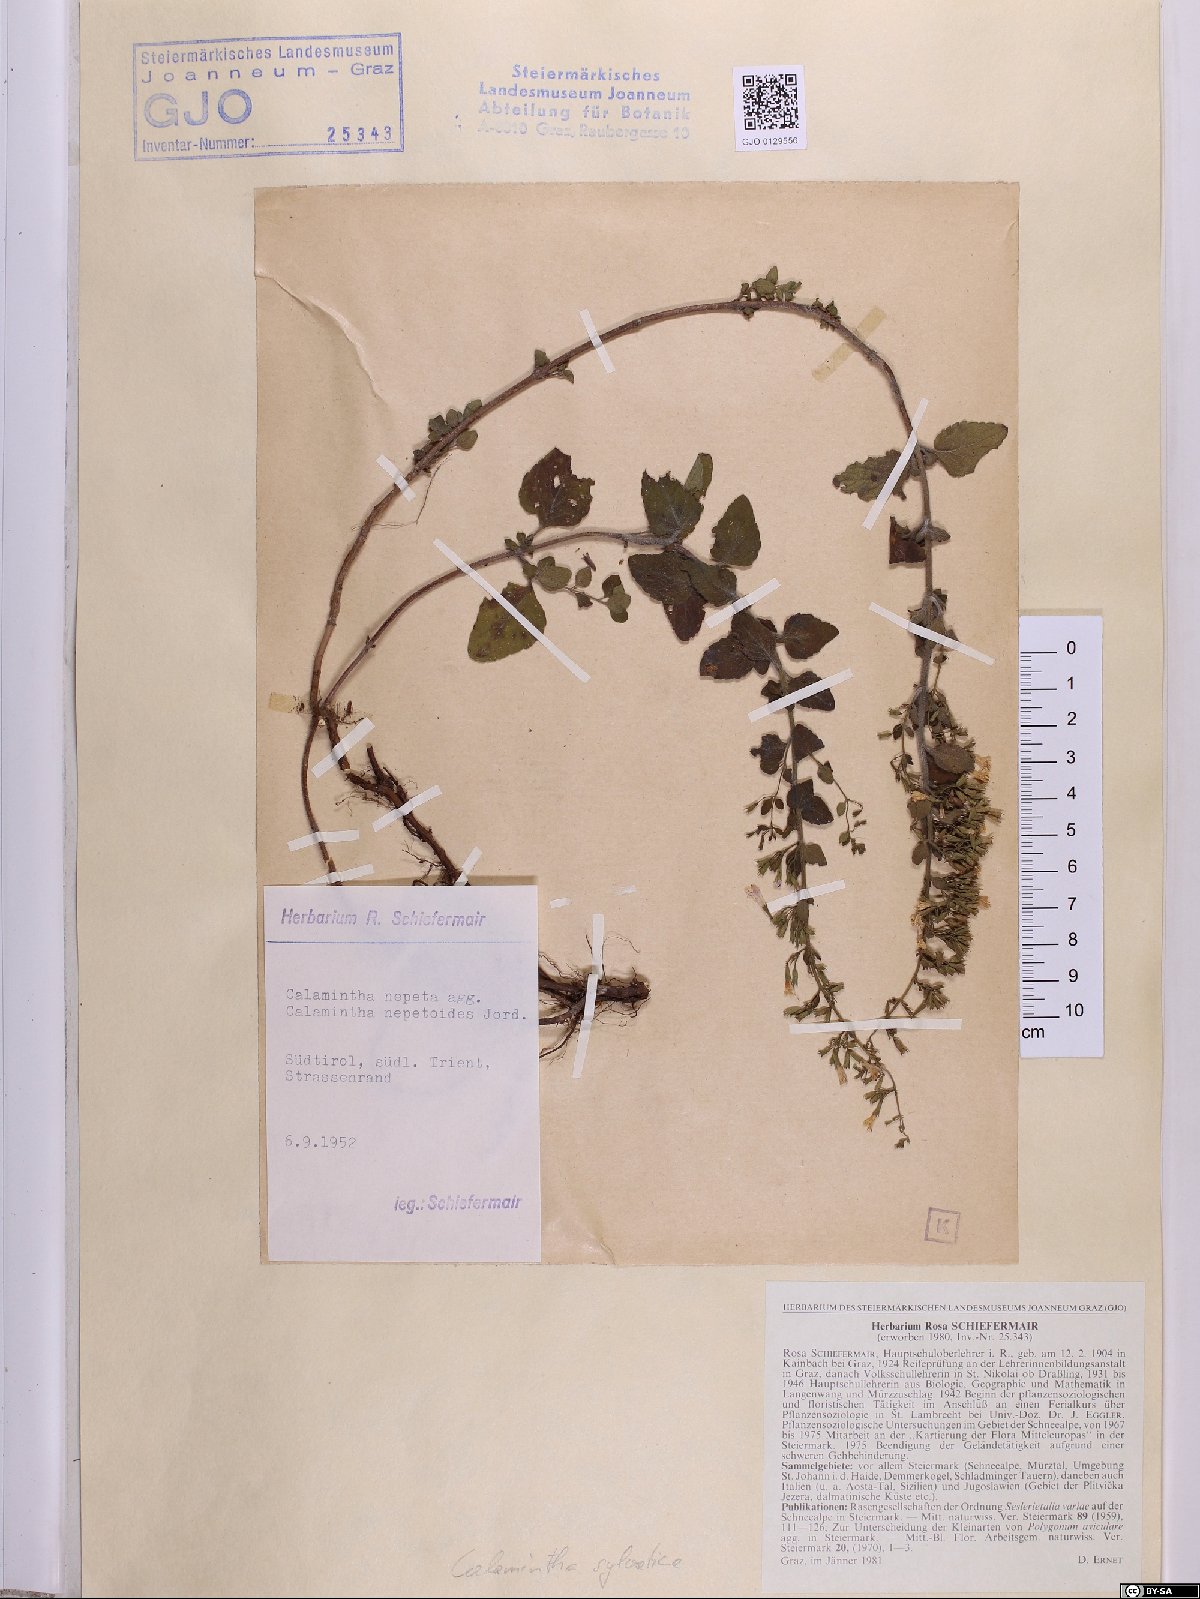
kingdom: Plantae
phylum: Tracheophyta
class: Magnoliopsida
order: Lamiales
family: Lamiaceae
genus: Clinopodium
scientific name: Clinopodium nepeta
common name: Lesser calamint
